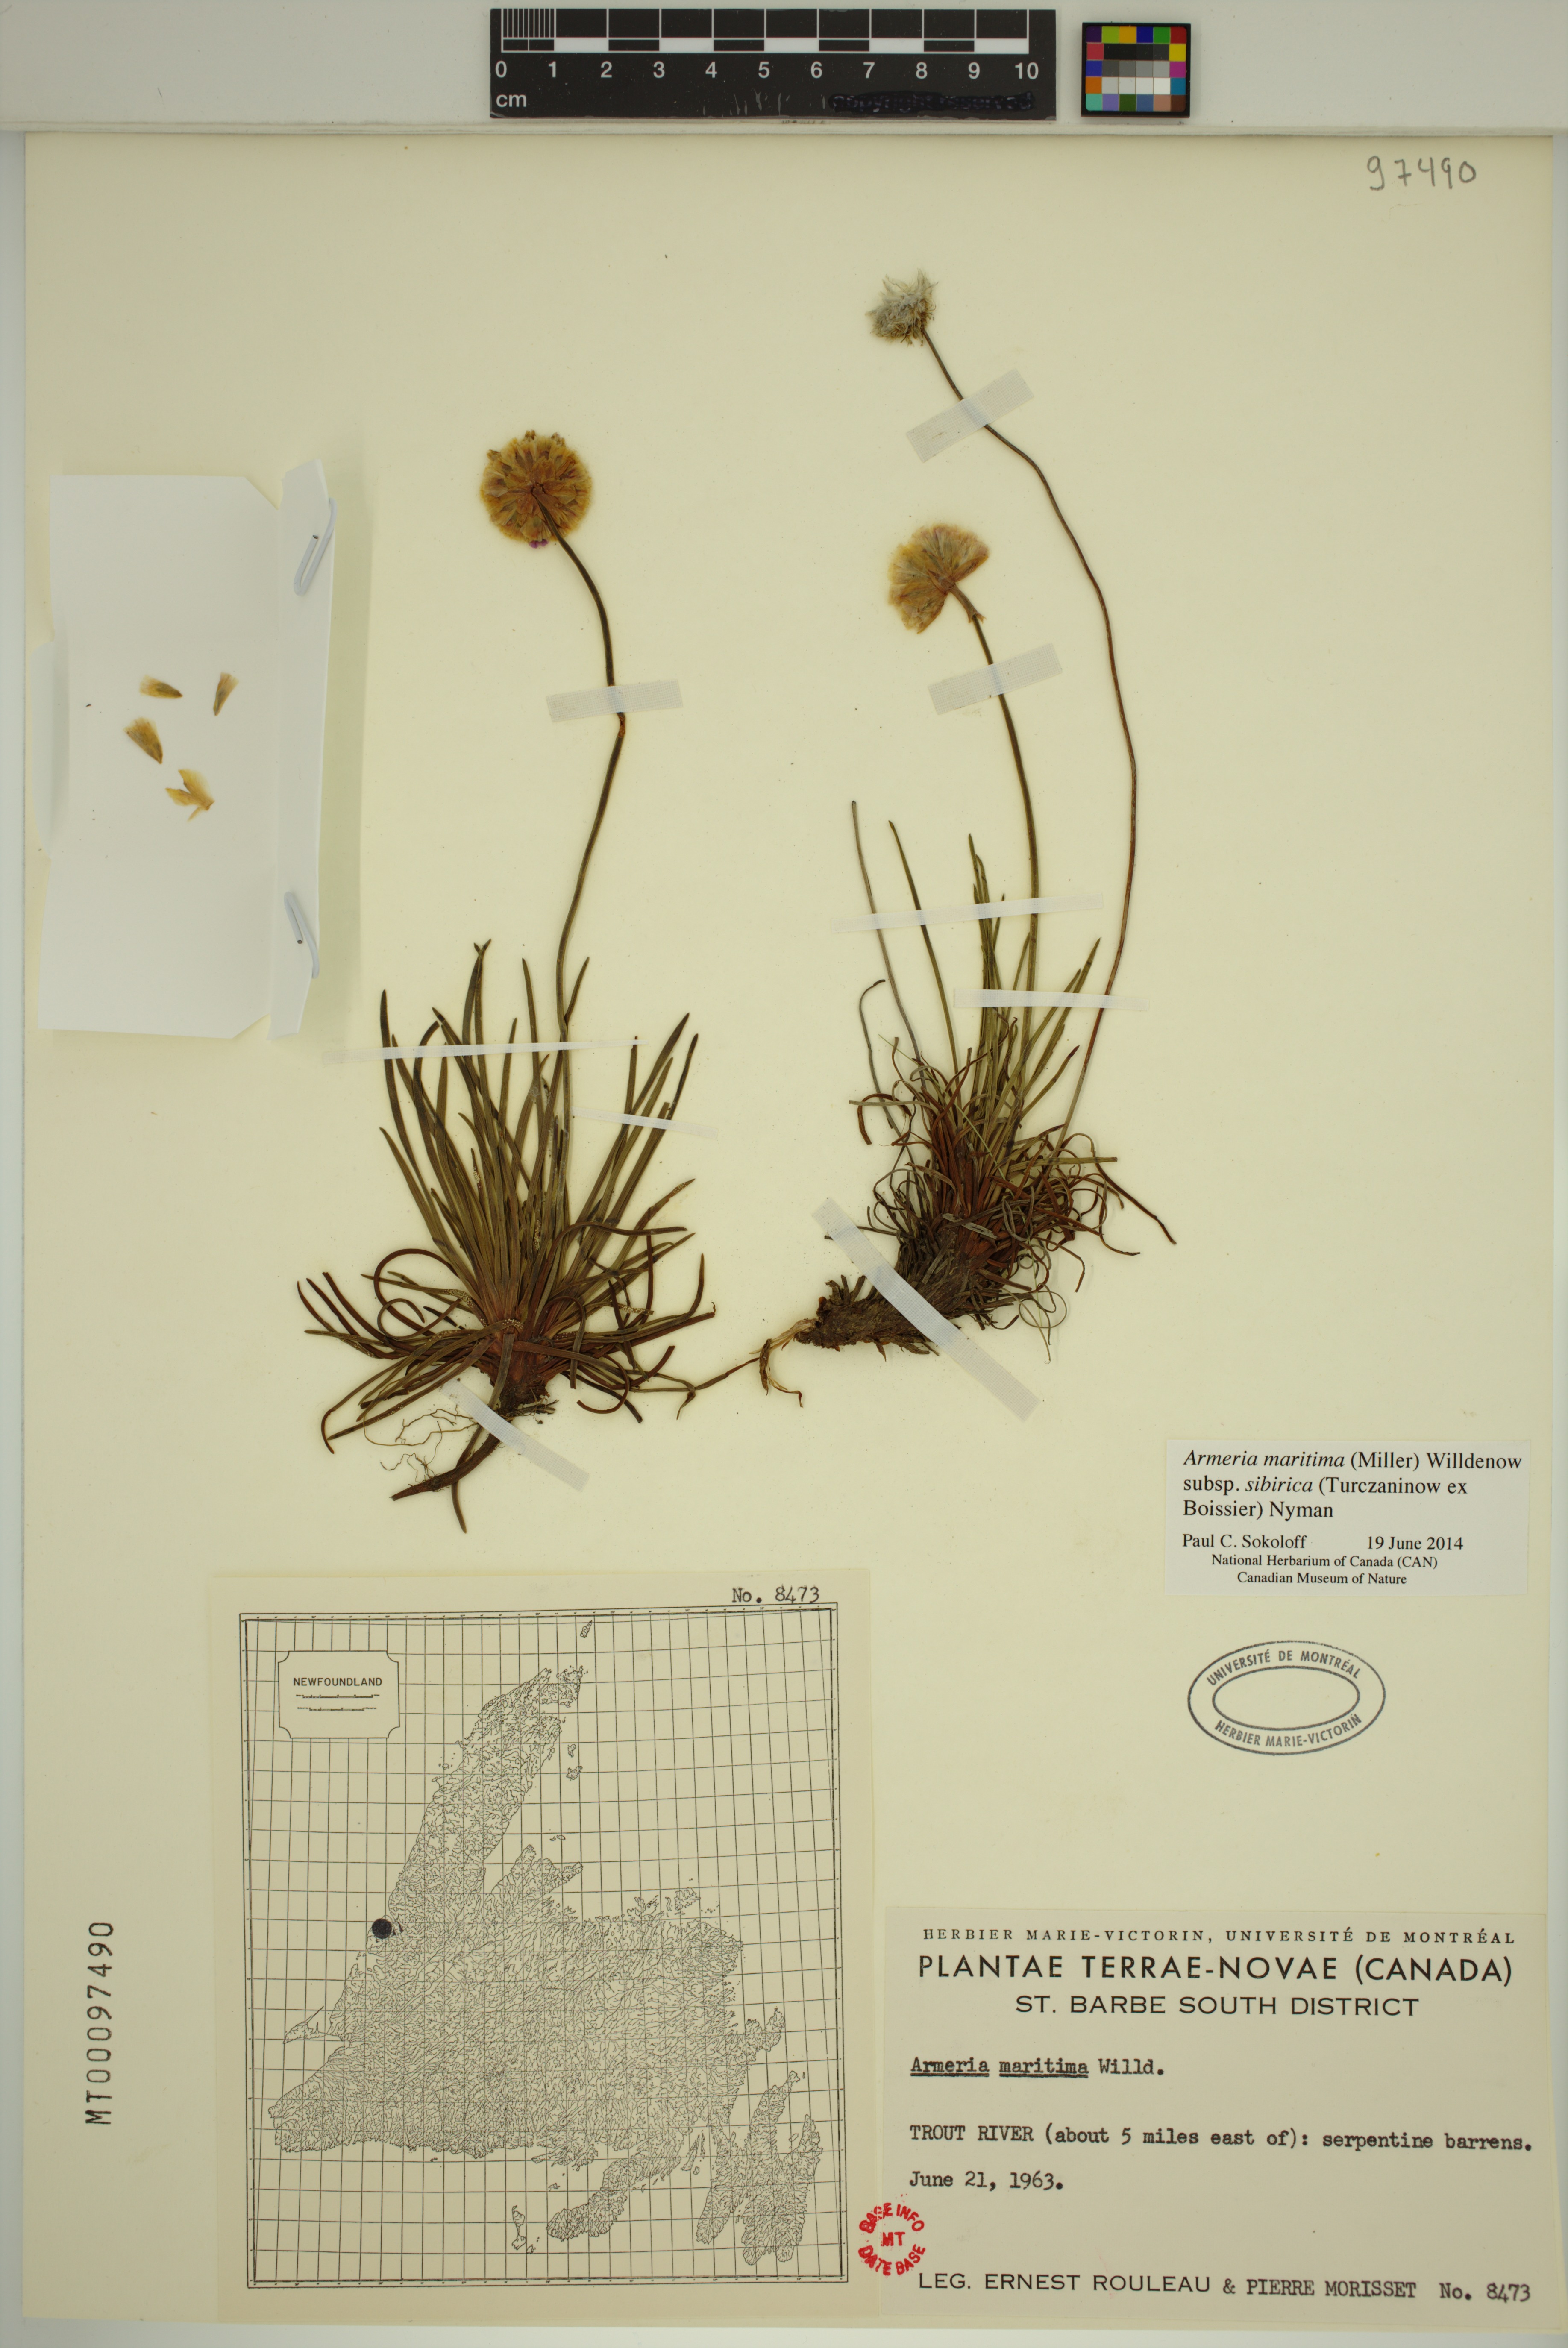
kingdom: Plantae
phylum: Tracheophyta
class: Magnoliopsida
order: Caryophyllales
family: Plumbaginaceae
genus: Armeria
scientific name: Armeria maritima
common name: Thrift
